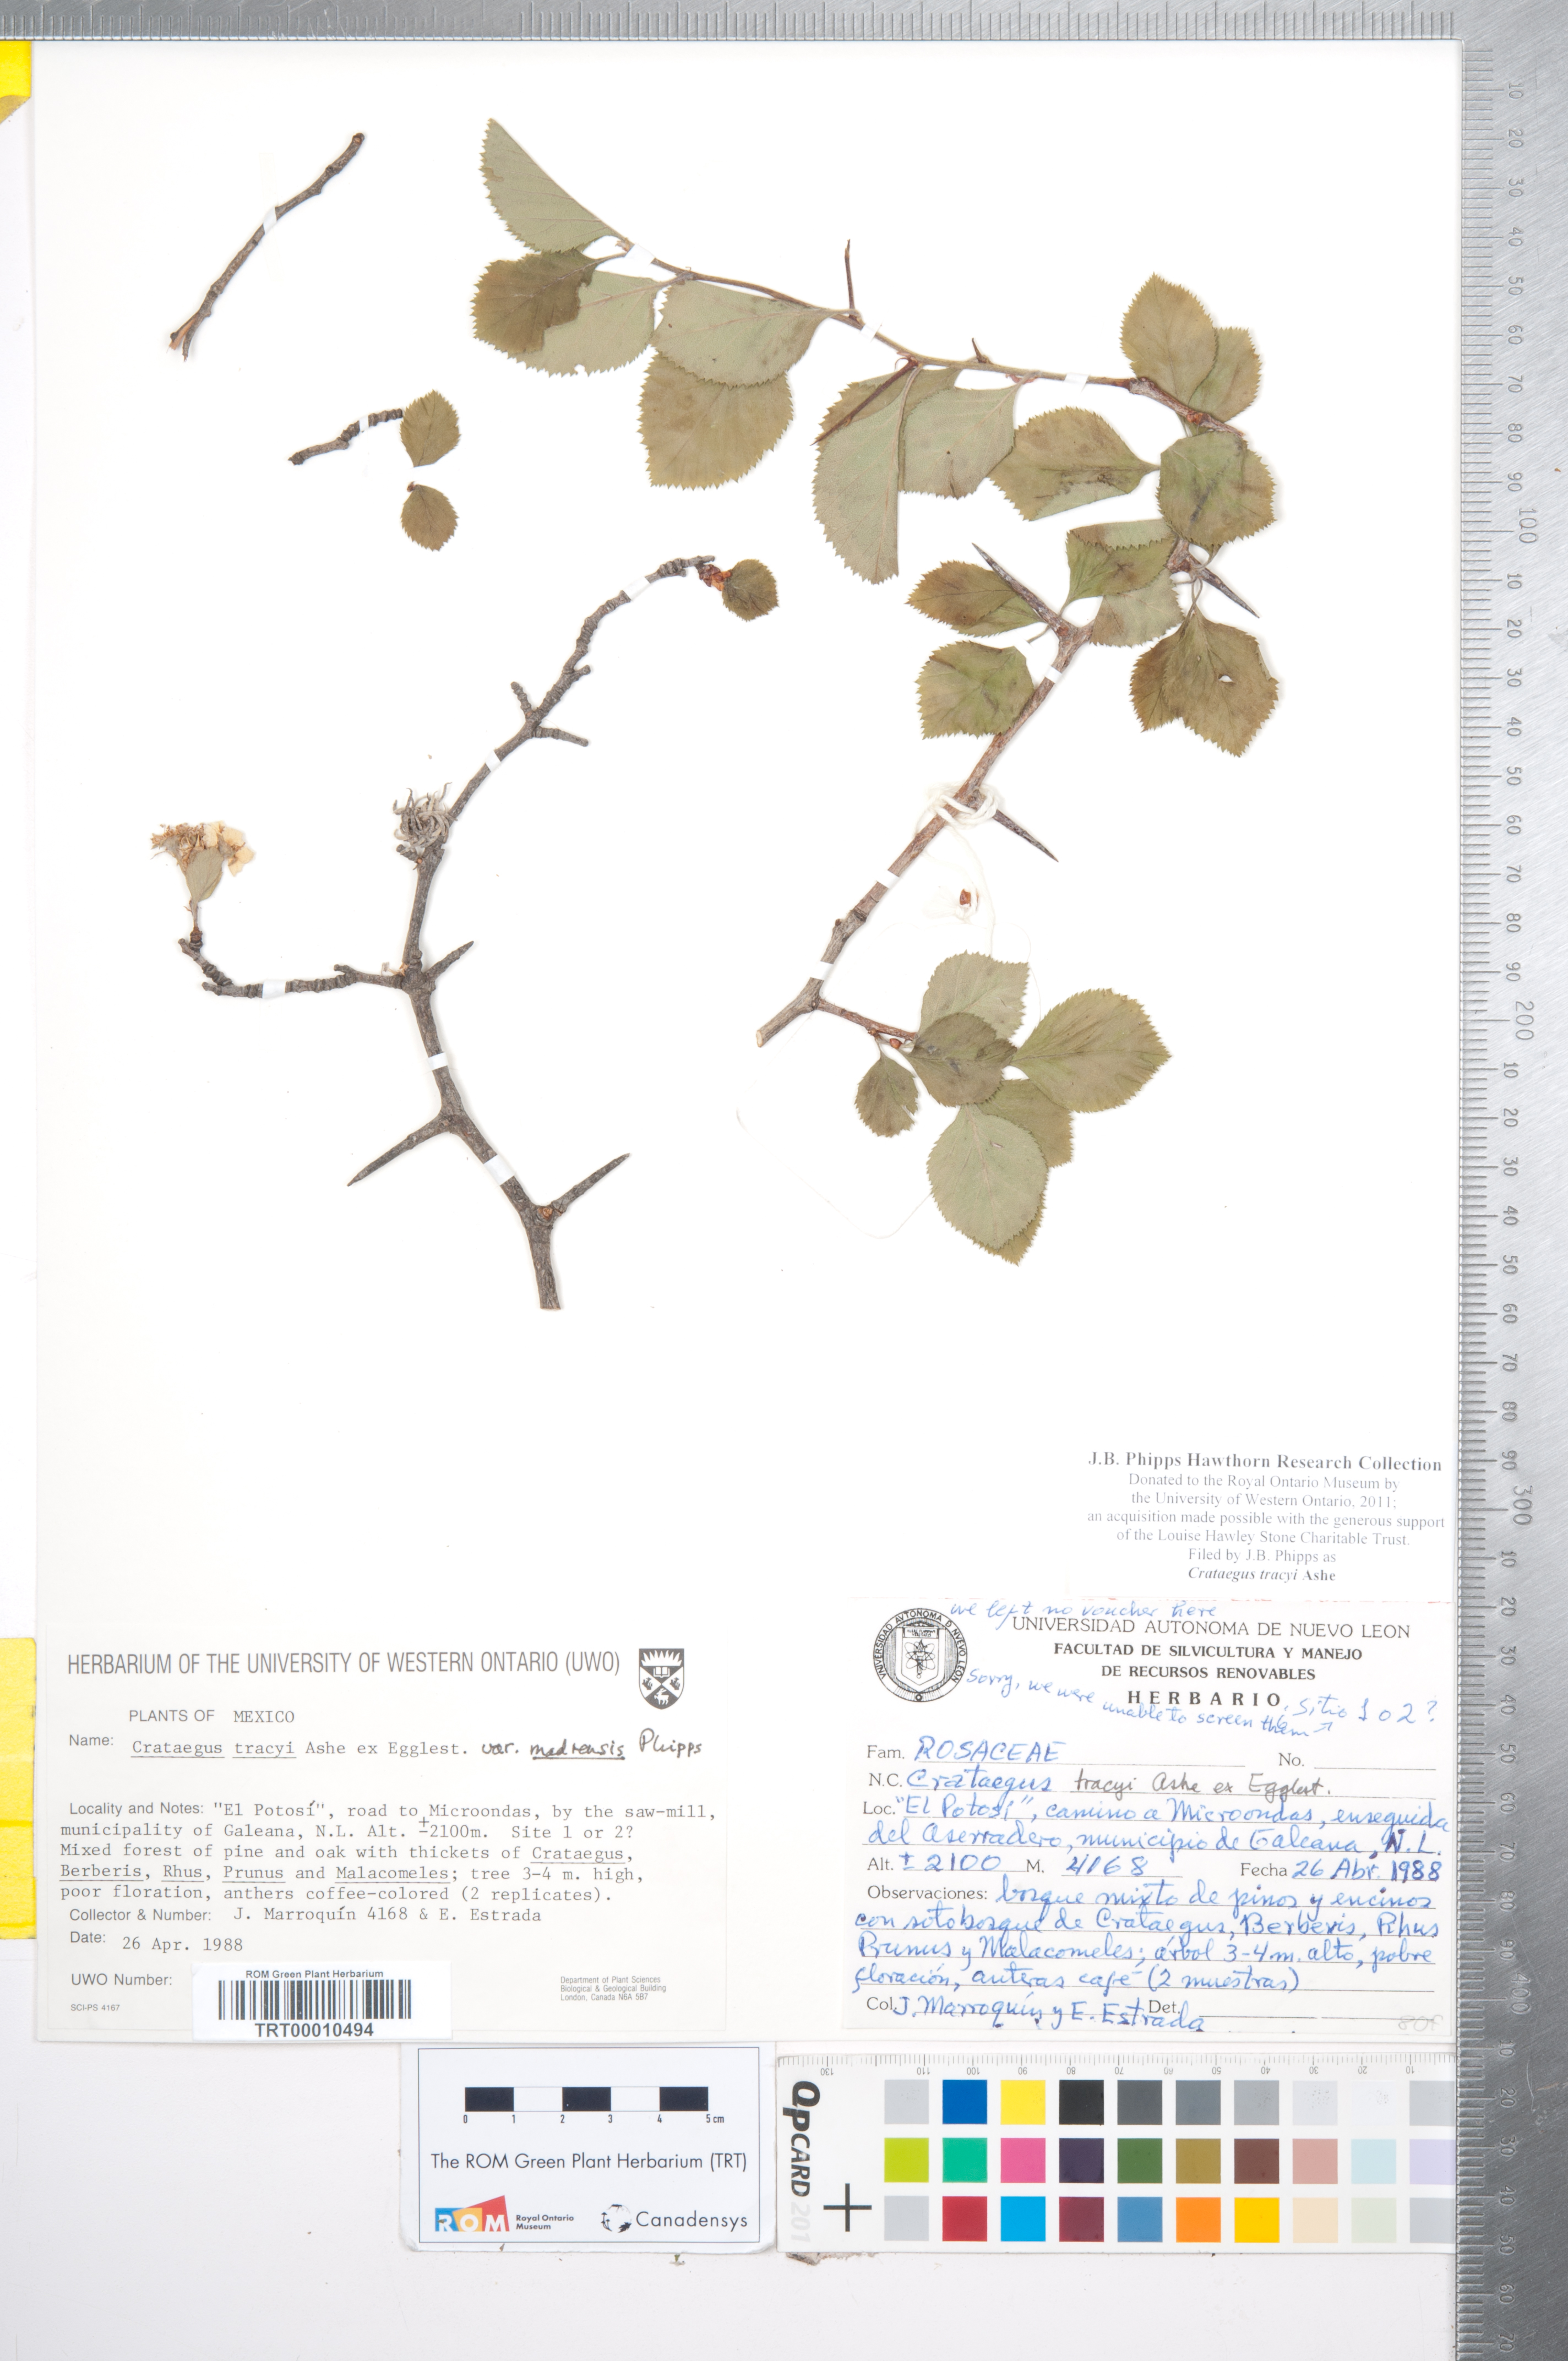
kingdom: Plantae
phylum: Tracheophyta
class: Magnoliopsida
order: Rosales
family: Rosaceae
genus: Crataegus
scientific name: Crataegus tracyi
